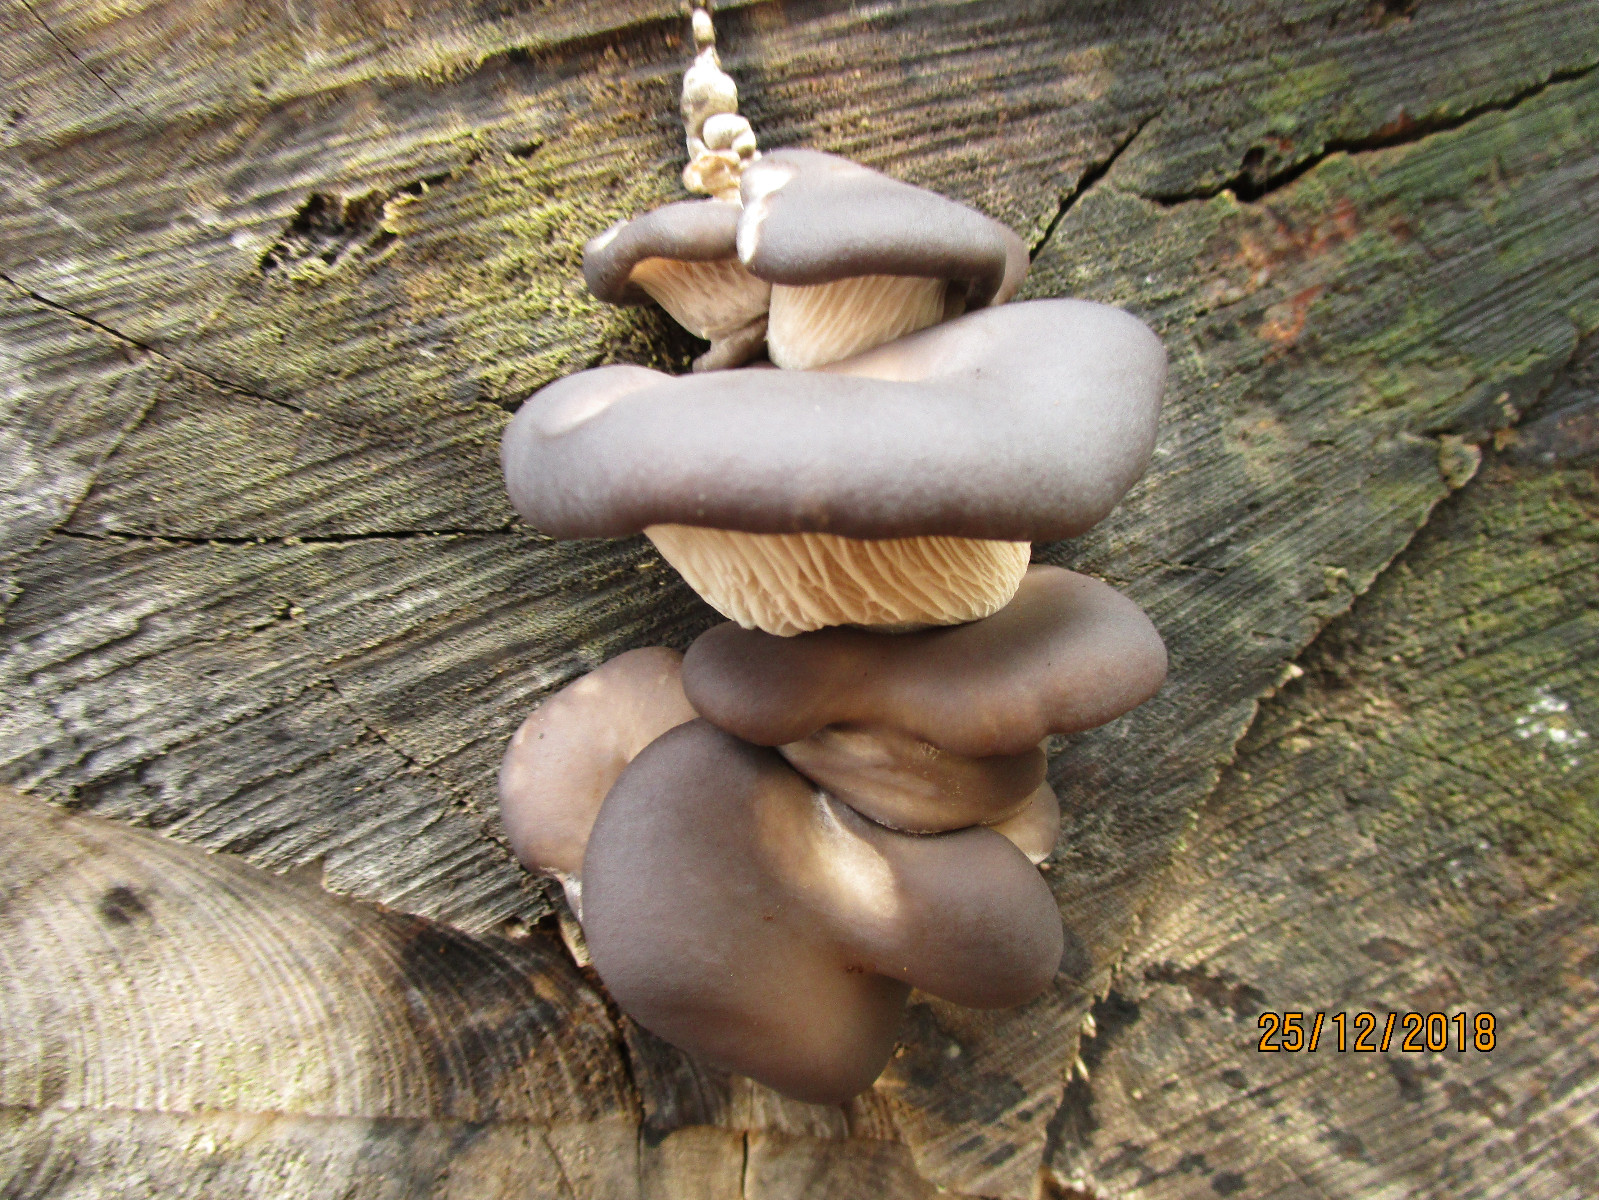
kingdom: Fungi
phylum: Basidiomycota
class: Agaricomycetes
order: Agaricales
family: Pleurotaceae
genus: Pleurotus
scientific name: Pleurotus ostreatus
